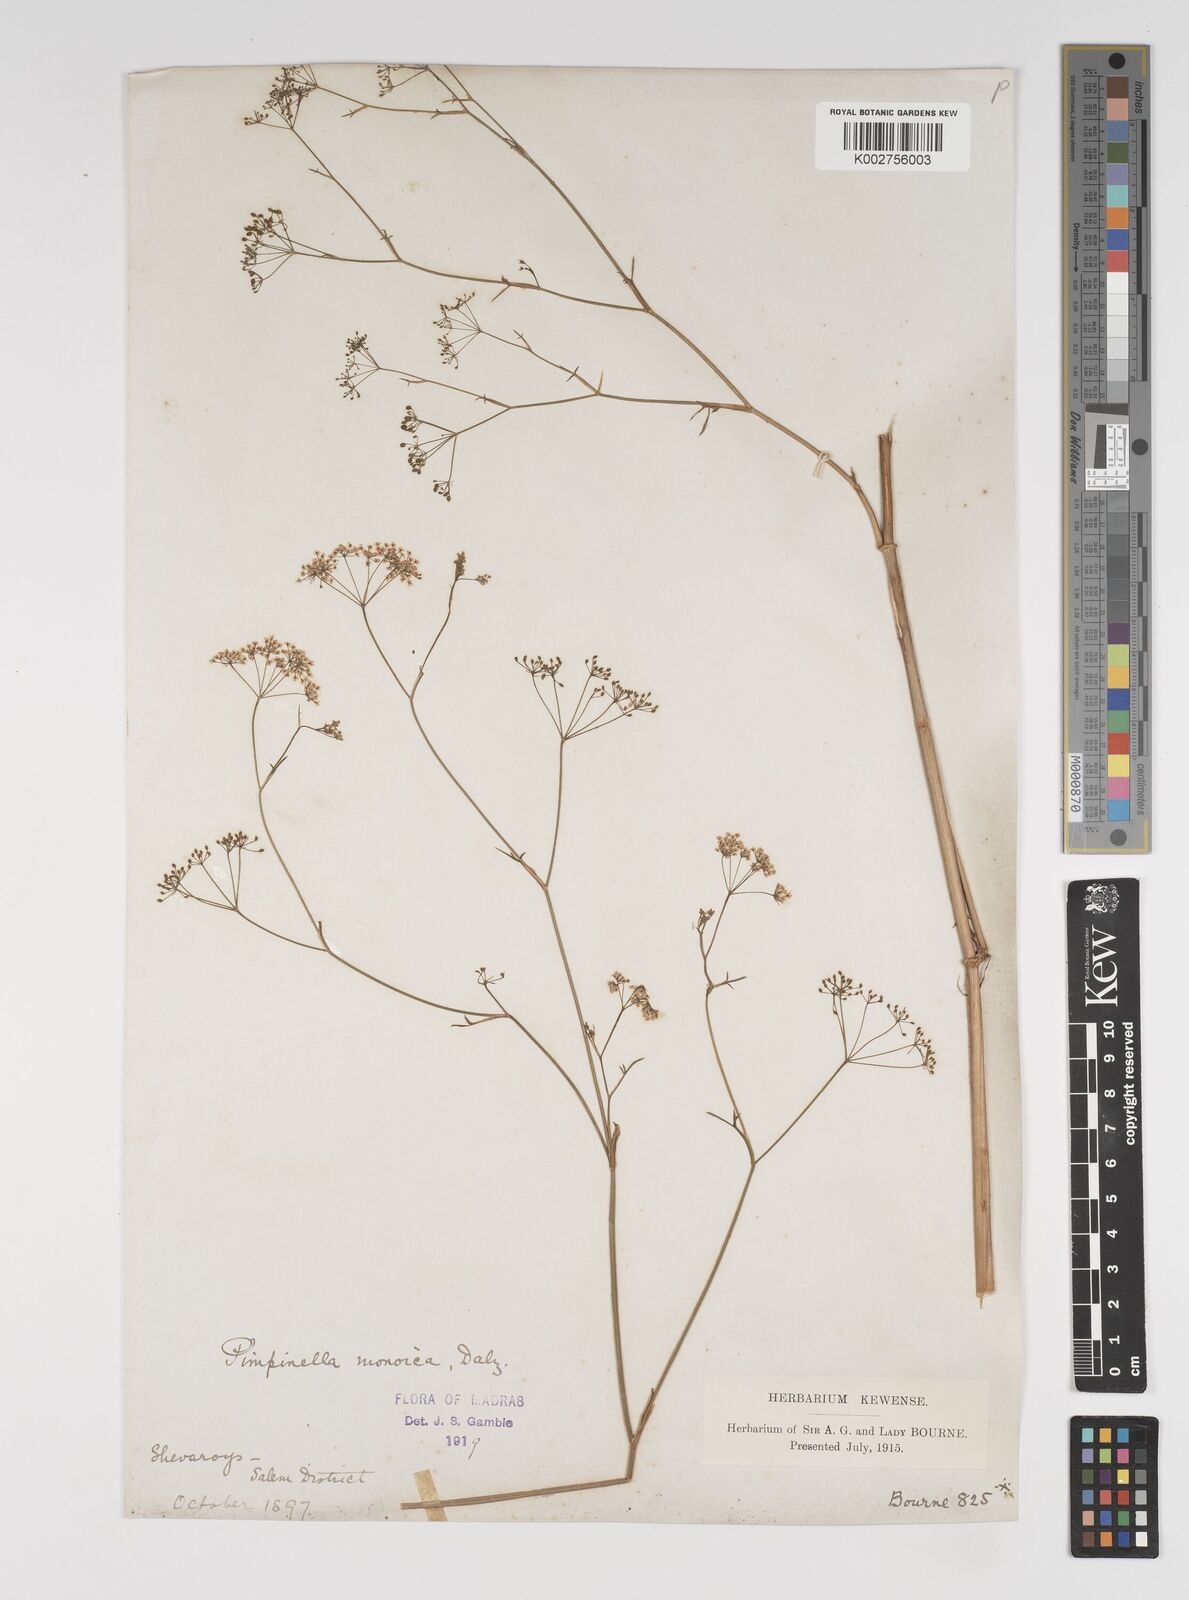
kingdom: Plantae
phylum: Tracheophyta
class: Magnoliopsida
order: Apiales
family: Apiaceae
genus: Pimpinella
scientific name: Pimpinella wallichiana
